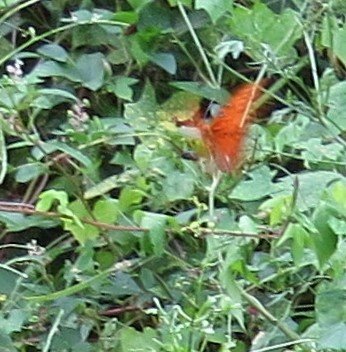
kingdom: Animalia
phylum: Arthropoda
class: Insecta
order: Lepidoptera
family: Nymphalidae
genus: Dione
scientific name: Dione vanillae
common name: Gulf Fritillary
